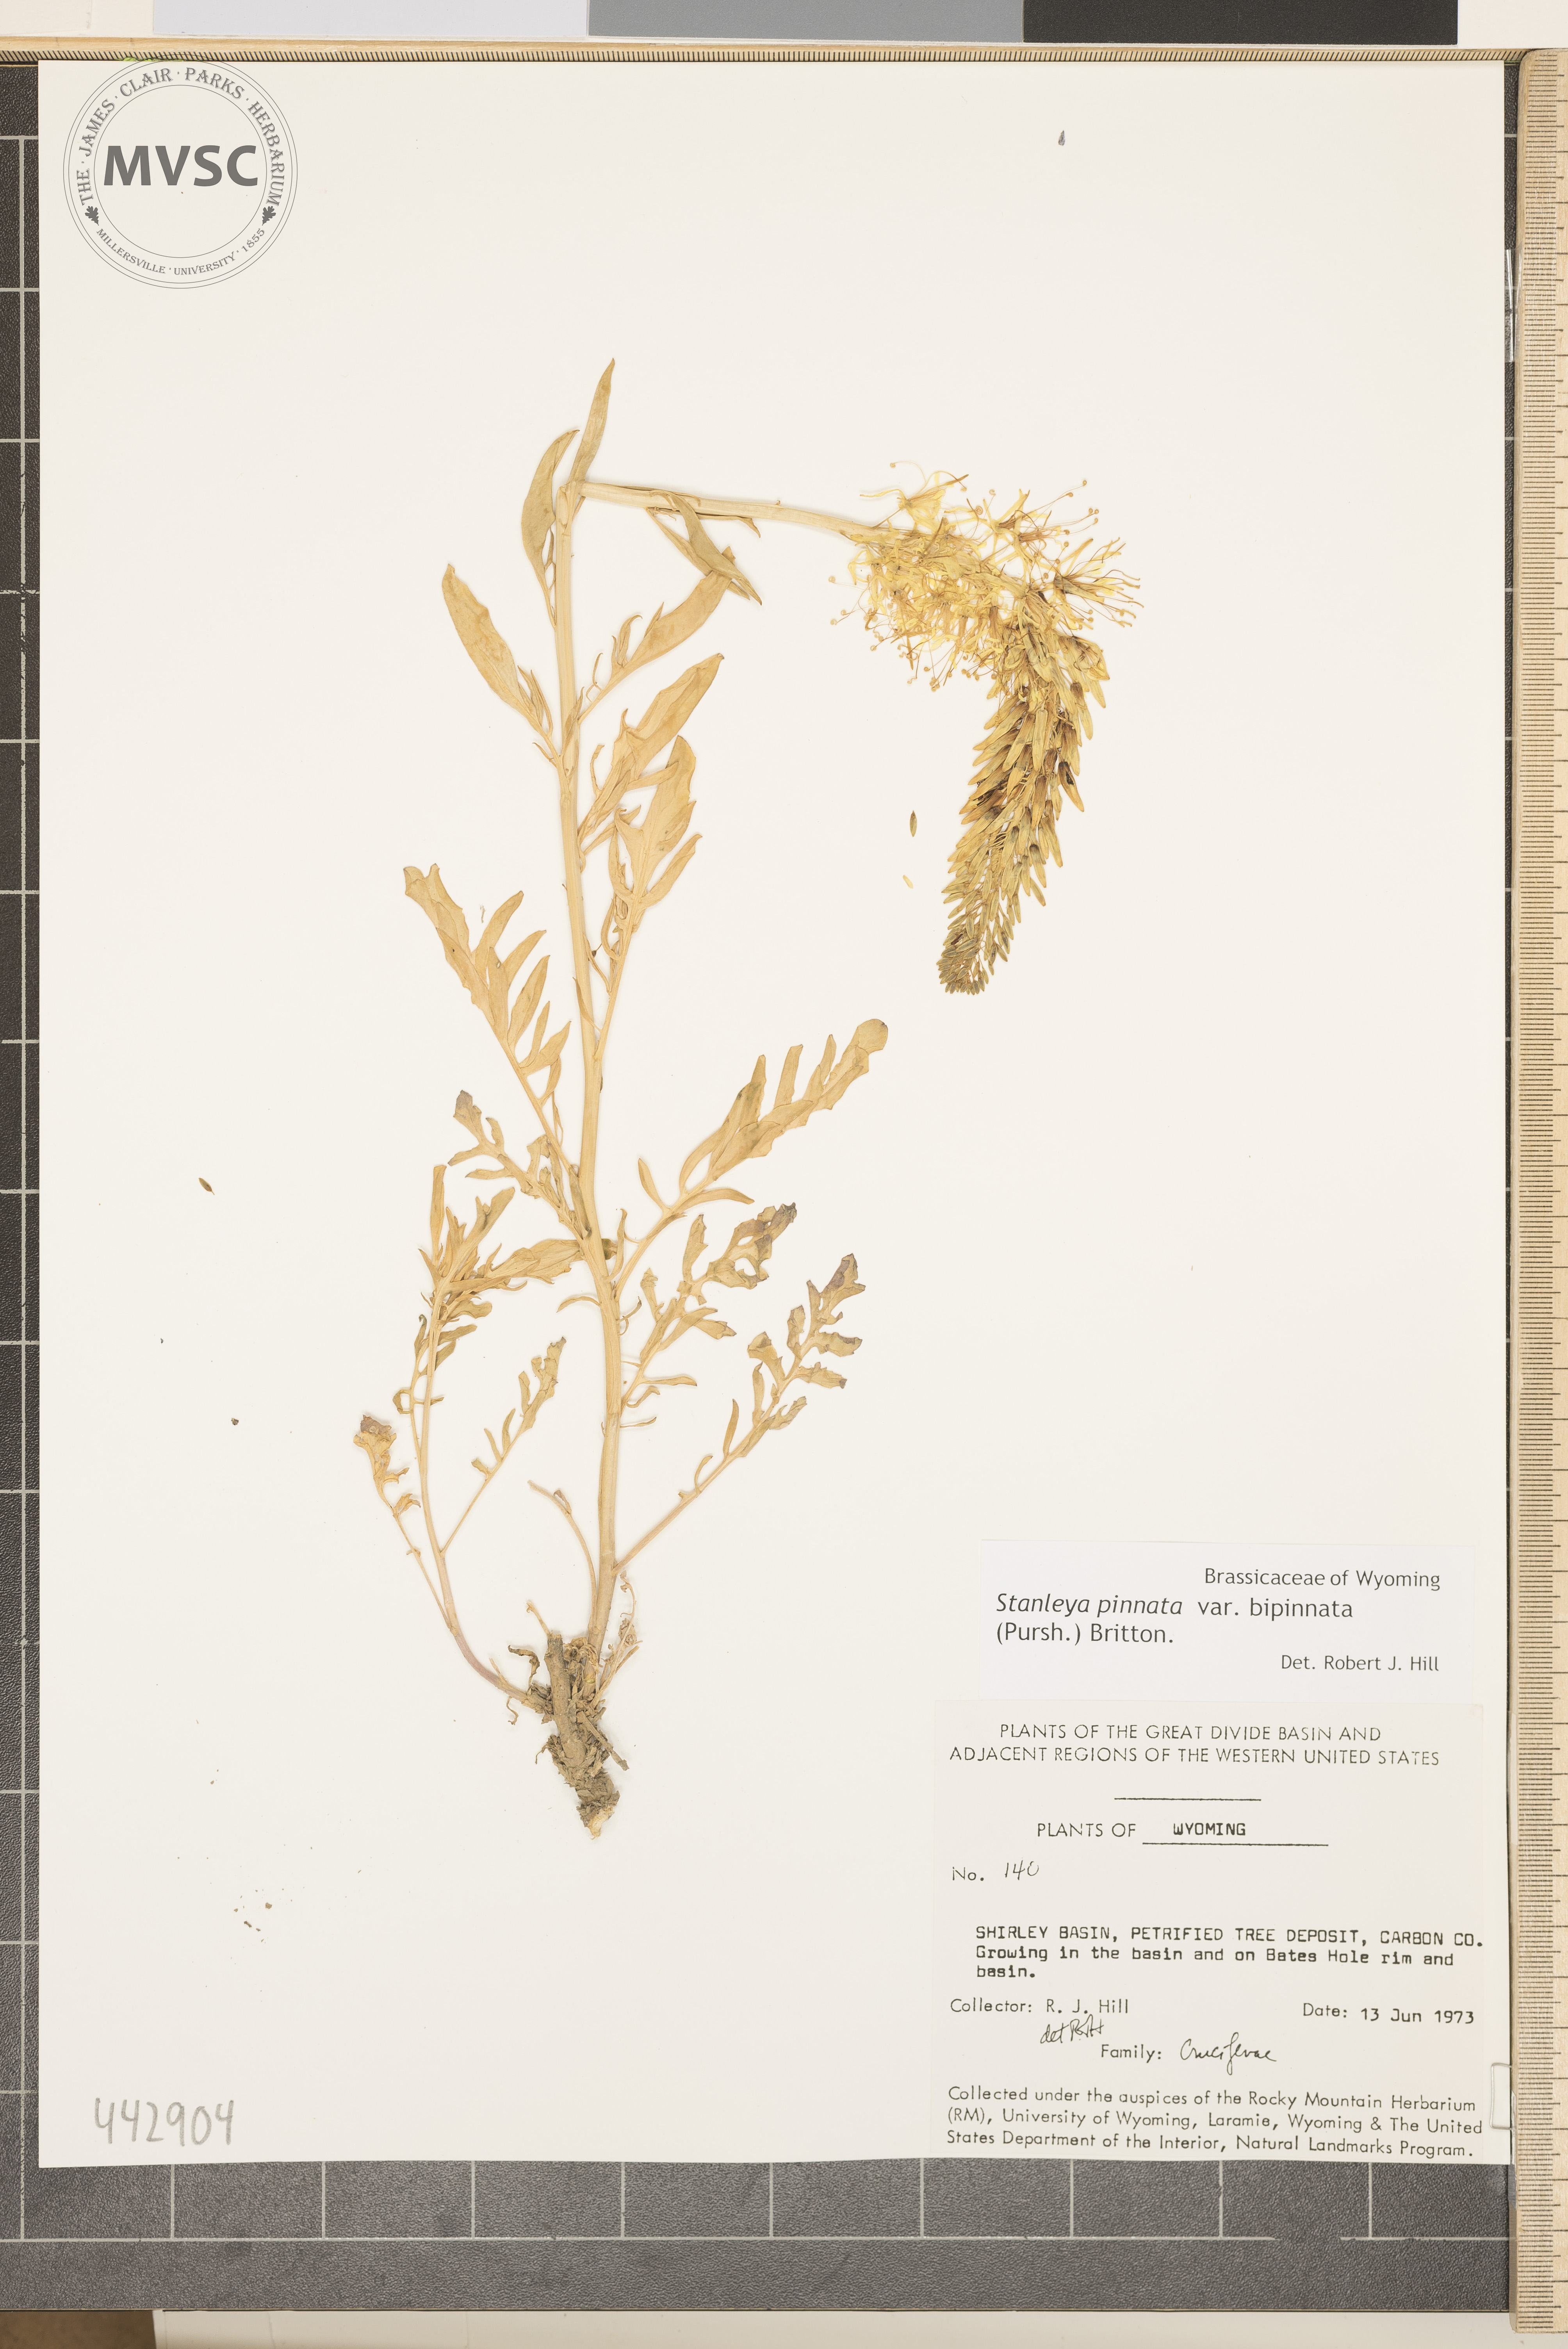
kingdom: Plantae
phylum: Tracheophyta
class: Magnoliopsida
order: Brassicales
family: Brassicaceae
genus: Stanleya
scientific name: Stanleya pinnata
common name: Prince's-plume
